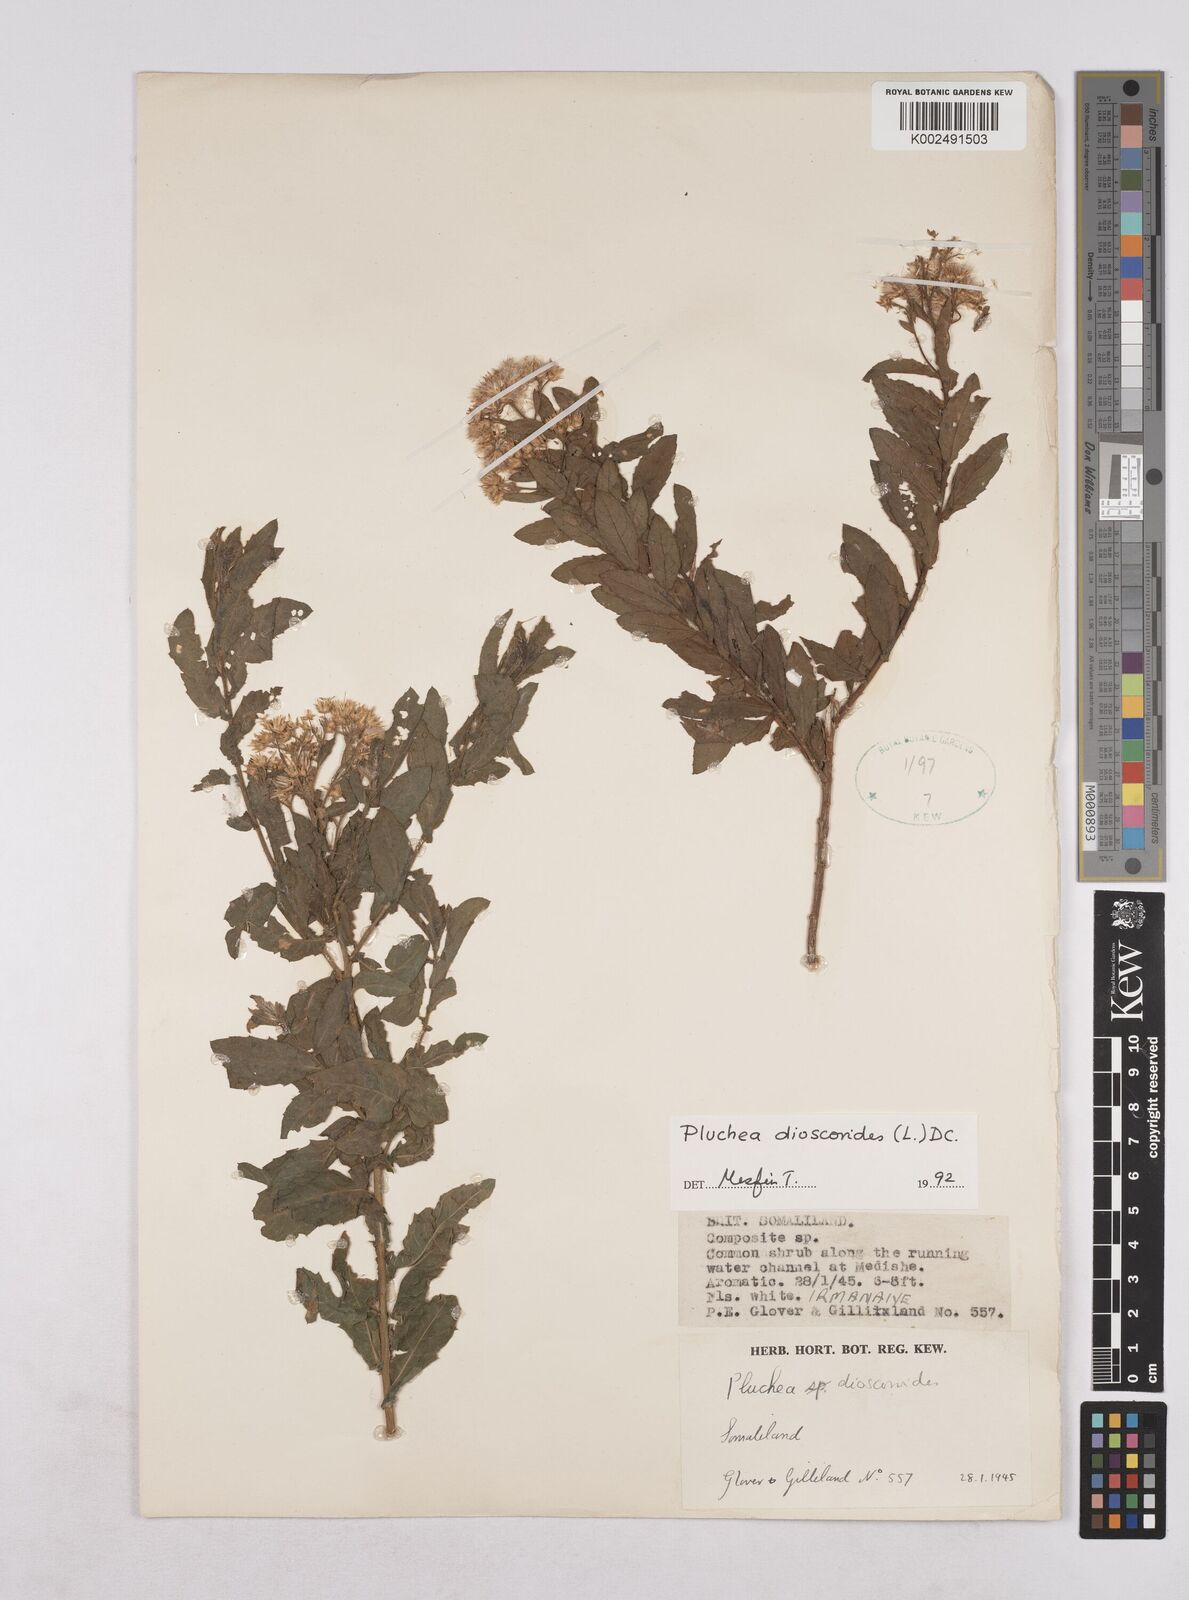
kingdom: Plantae
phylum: Tracheophyta
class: Magnoliopsida
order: Asterales
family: Asteraceae
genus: Pluchea
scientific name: Pluchea dioscoridis
